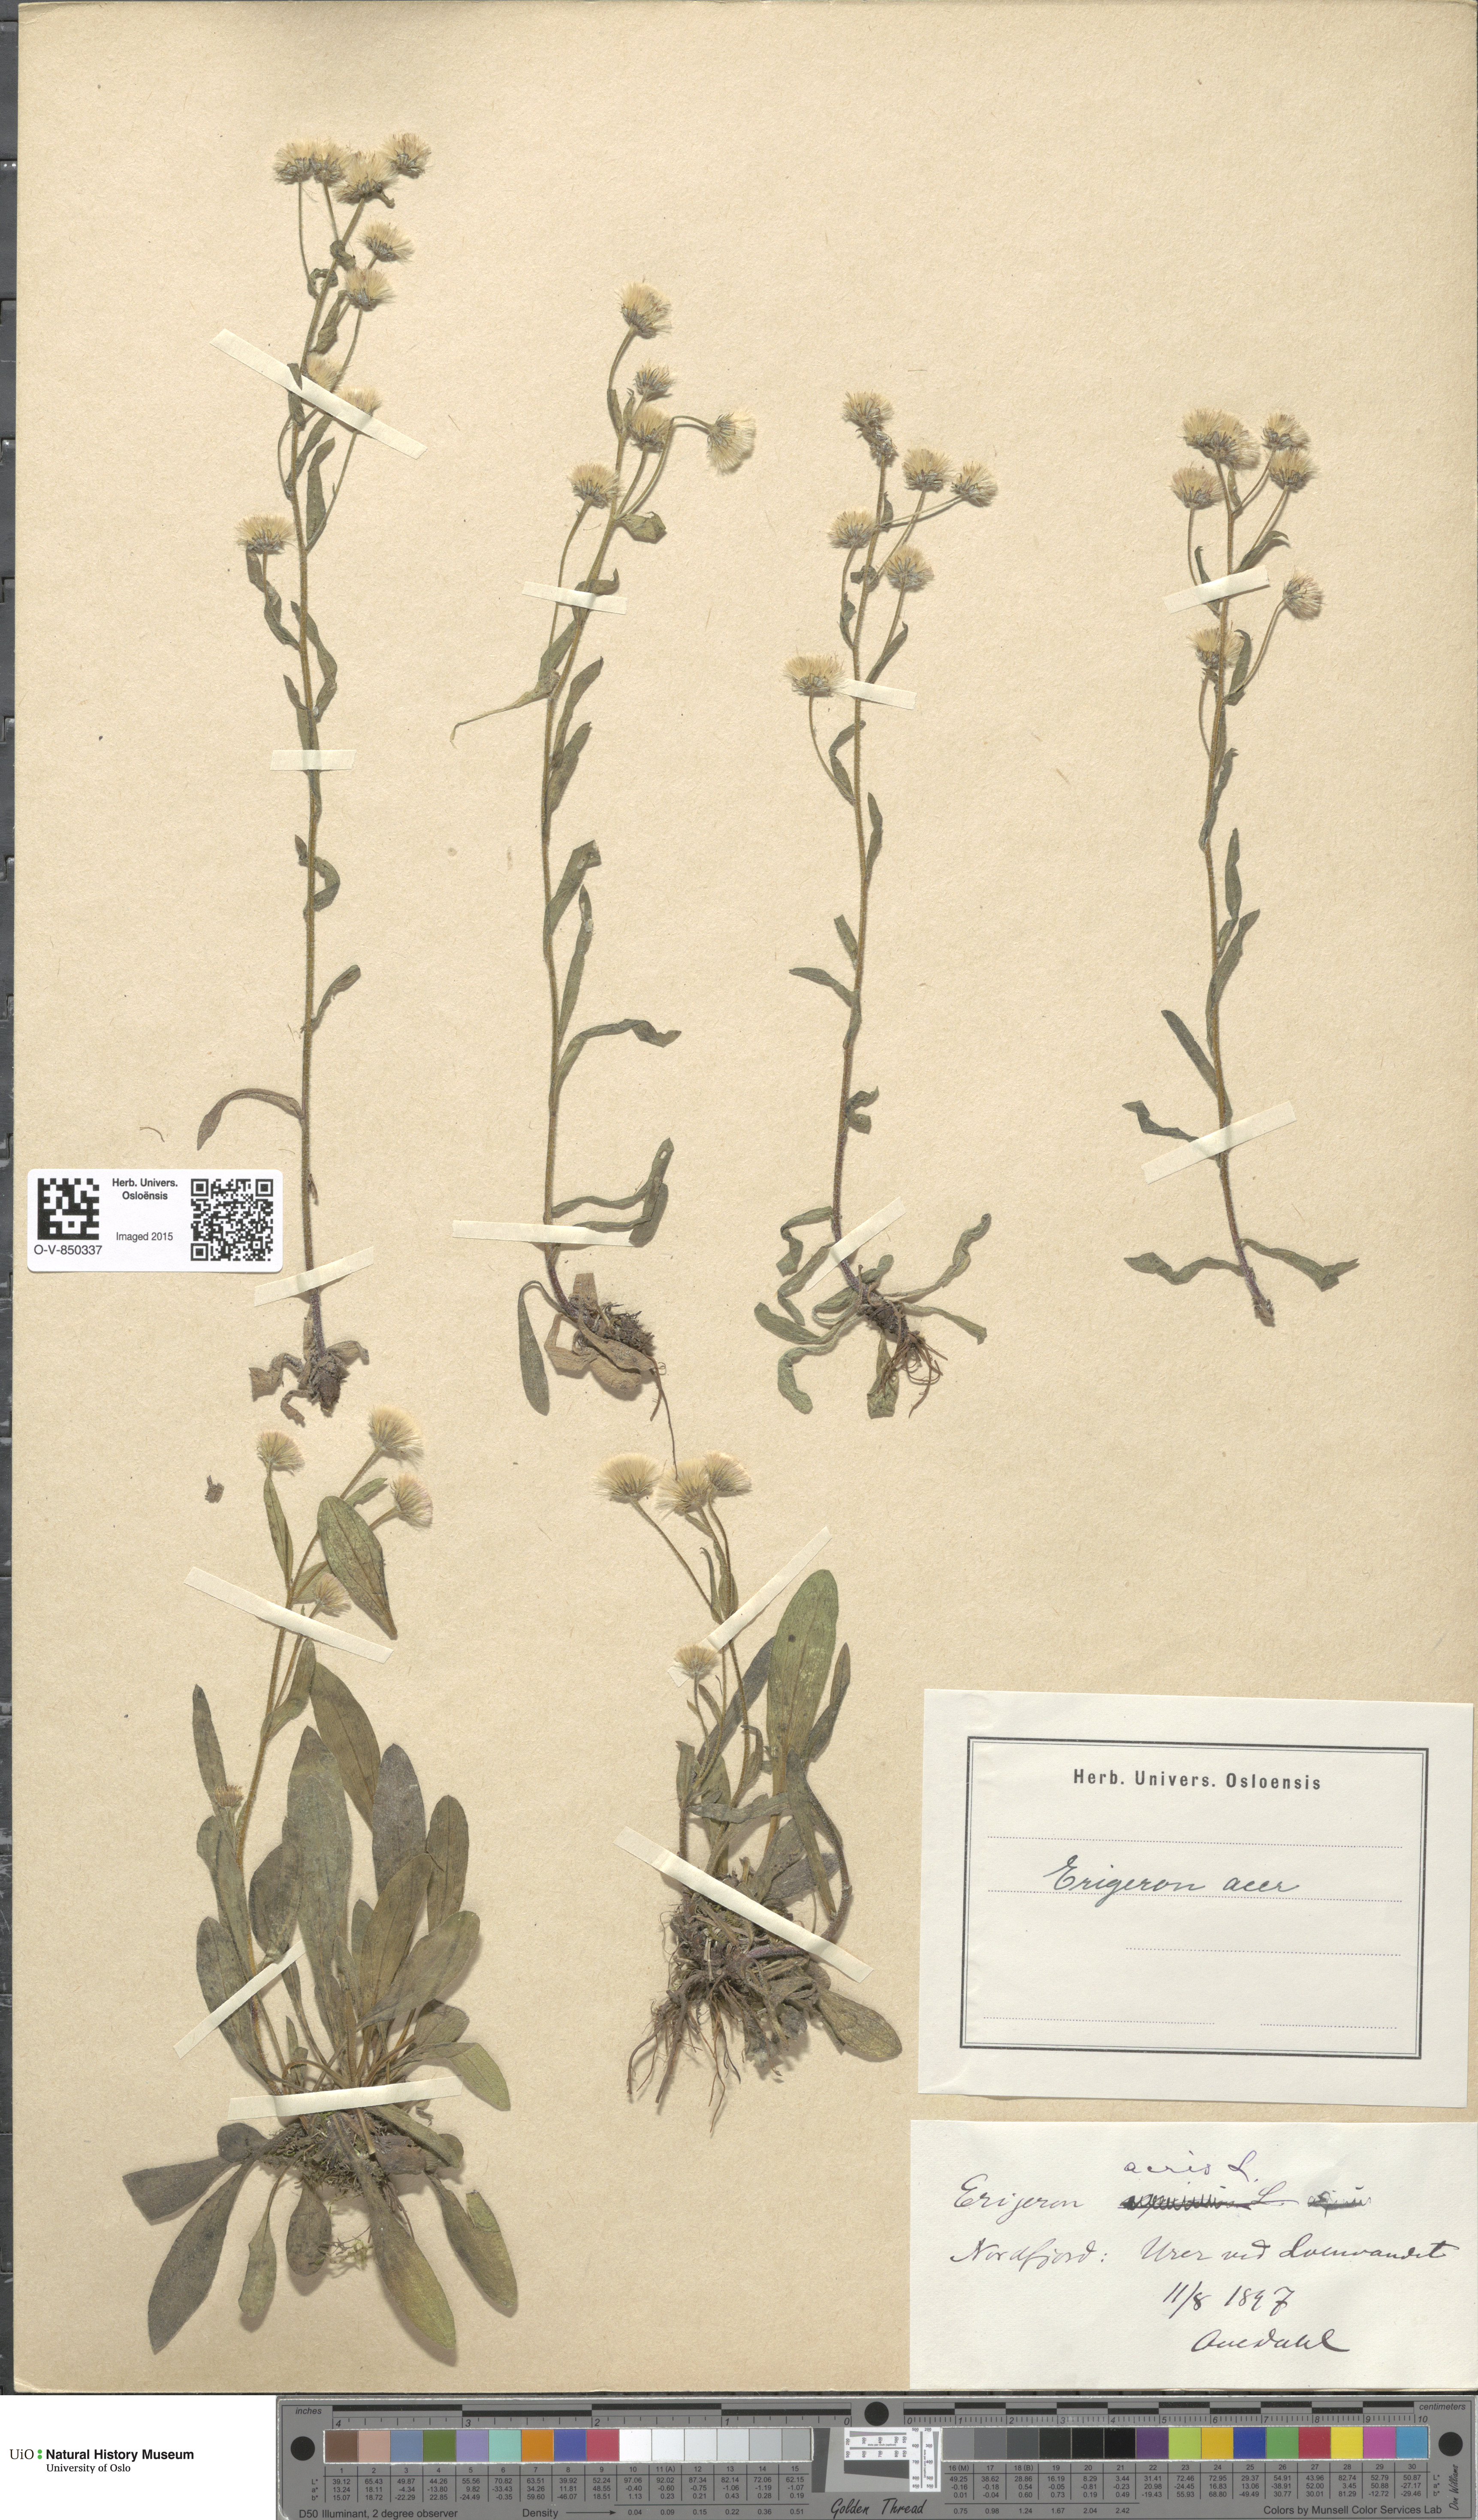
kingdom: Plantae
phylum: Tracheophyta
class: Magnoliopsida
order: Asterales
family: Asteraceae
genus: Erigeron
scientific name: Erigeron acris
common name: Blue fleabane
